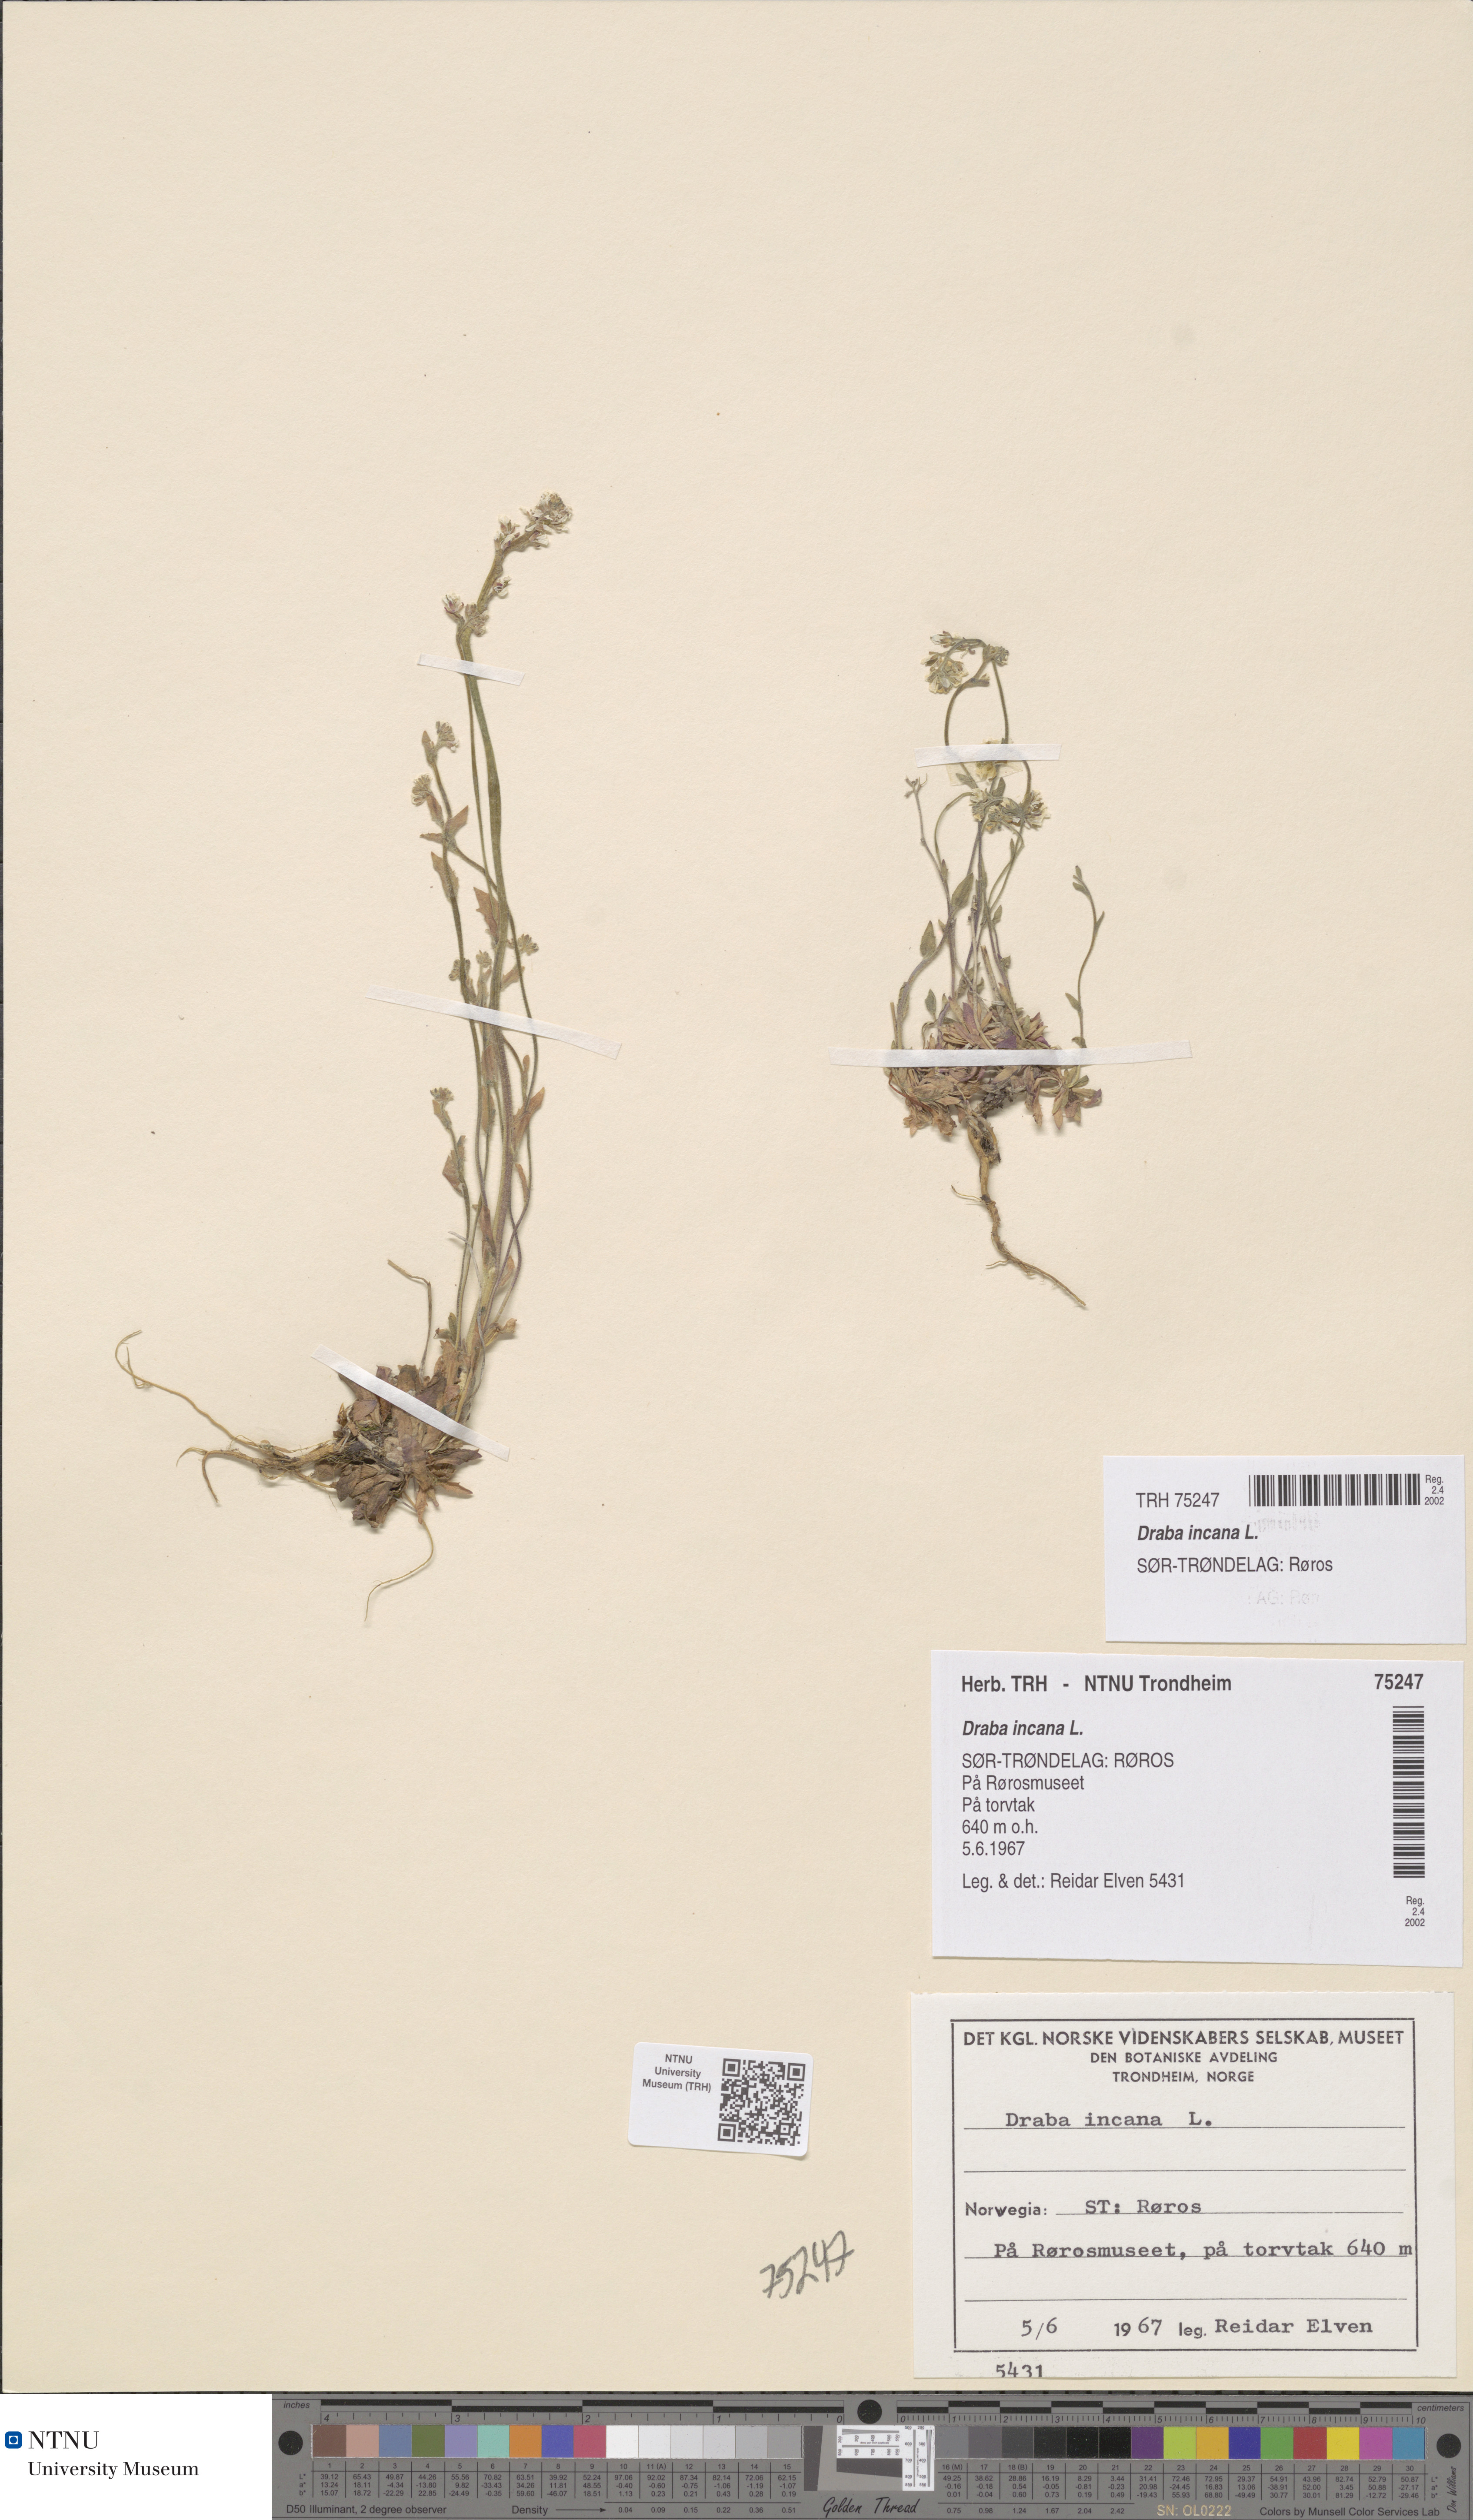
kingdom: Plantae
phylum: Tracheophyta
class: Magnoliopsida
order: Brassicales
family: Brassicaceae
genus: Draba
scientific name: Draba incana
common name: Hoary whitlow-grass
